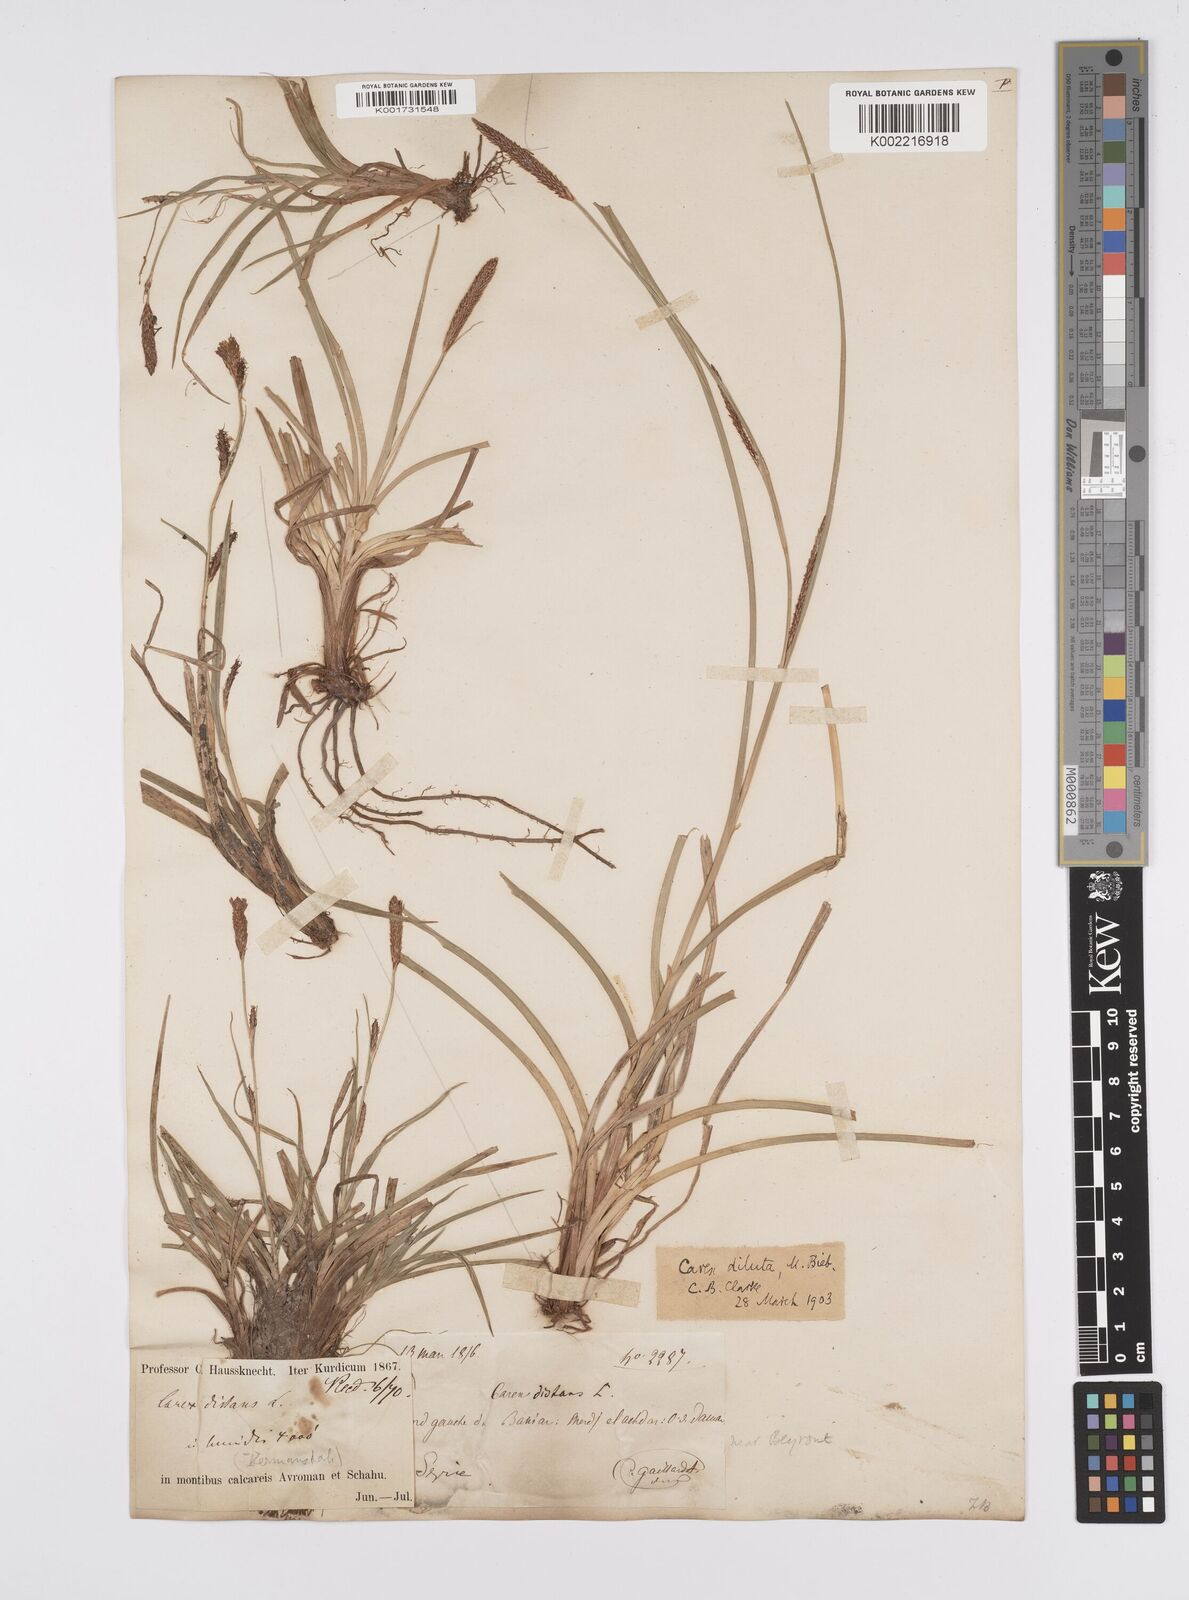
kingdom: Plantae
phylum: Tracheophyta
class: Liliopsida
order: Poales
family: Cyperaceae
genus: Carex
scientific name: Carex distans
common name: Distant sedge
